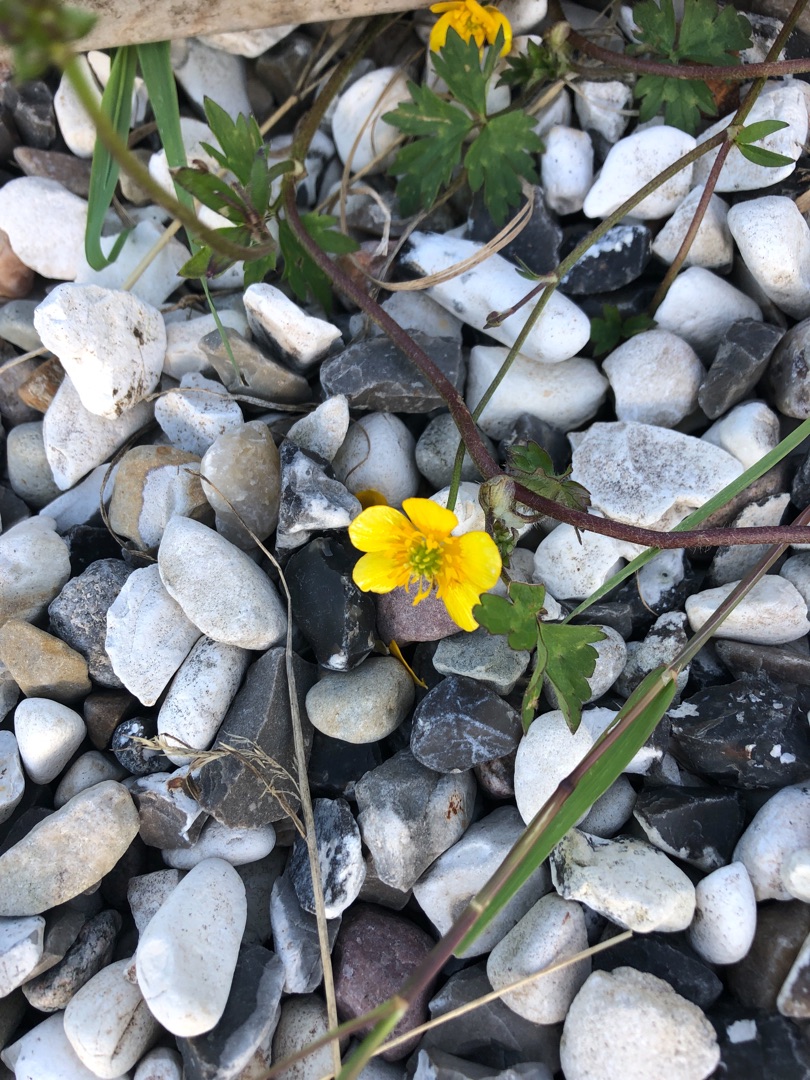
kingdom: Plantae
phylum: Tracheophyta
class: Magnoliopsida
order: Ranunculales
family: Ranunculaceae
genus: Ranunculus
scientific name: Ranunculus repens
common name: Lav ranunkel
